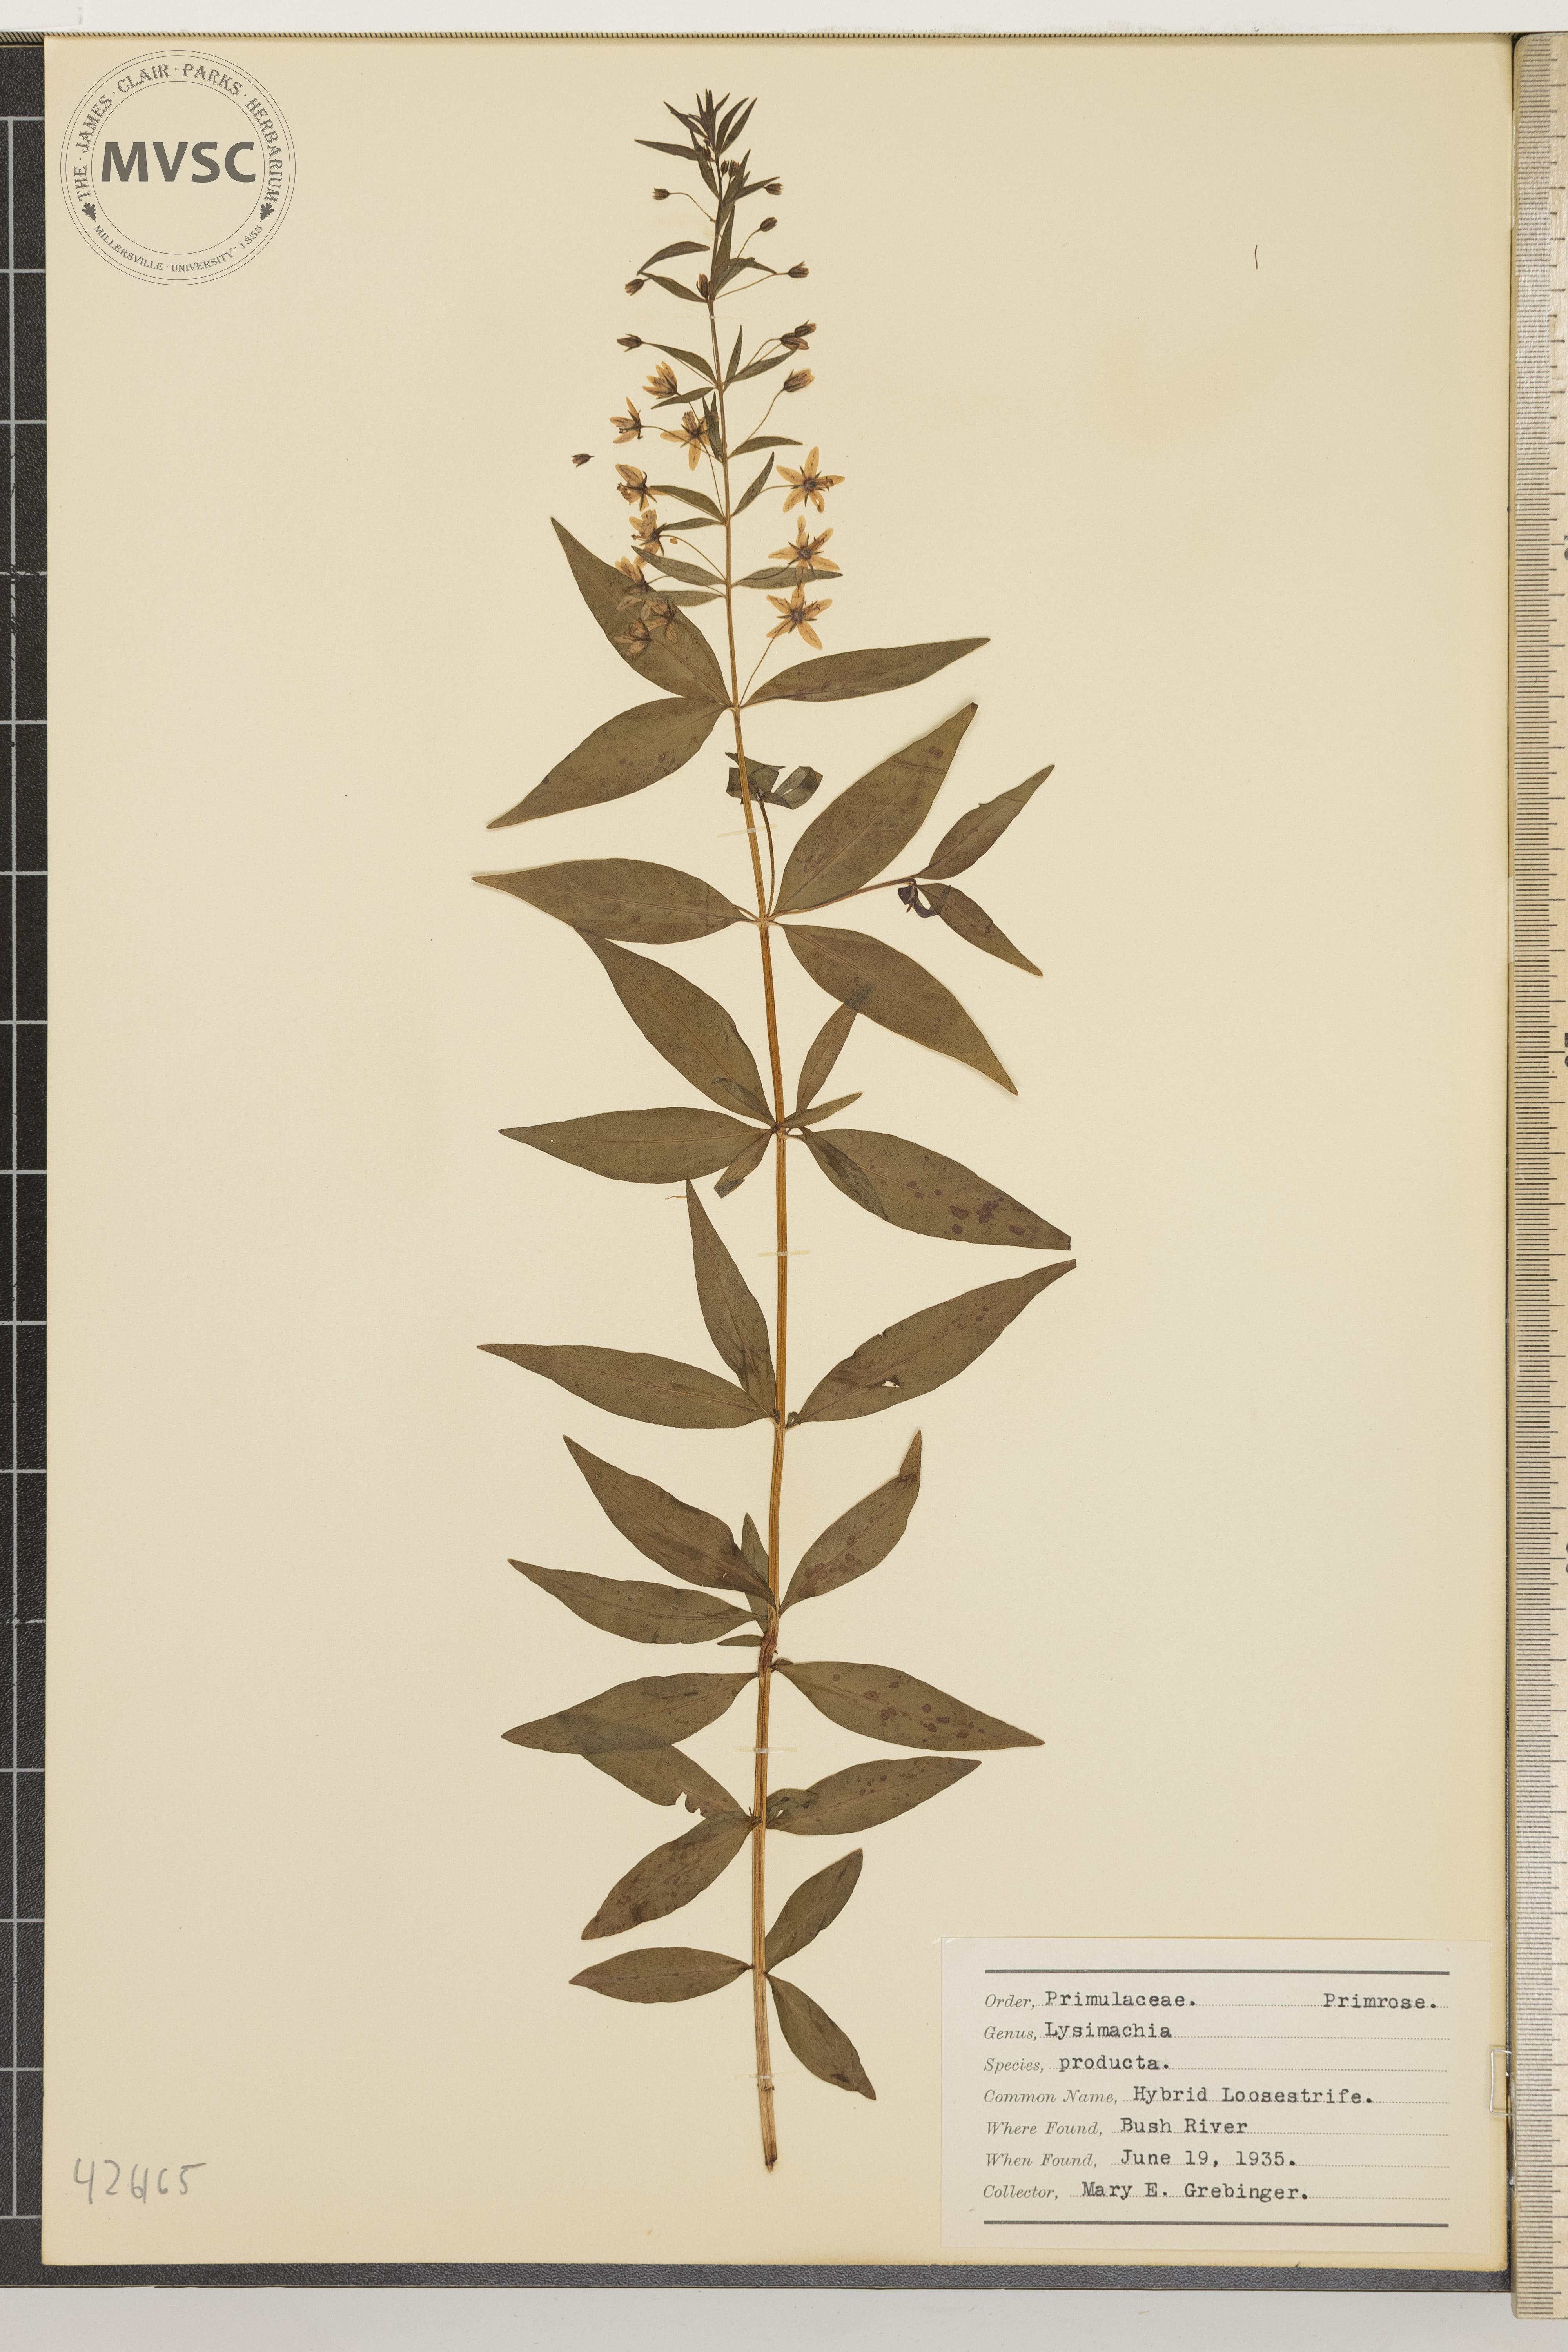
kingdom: Plantae
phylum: Tracheophyta
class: Magnoliopsida
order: Ericales
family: Primulaceae
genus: Lysimachia
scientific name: Lysimachia producta
